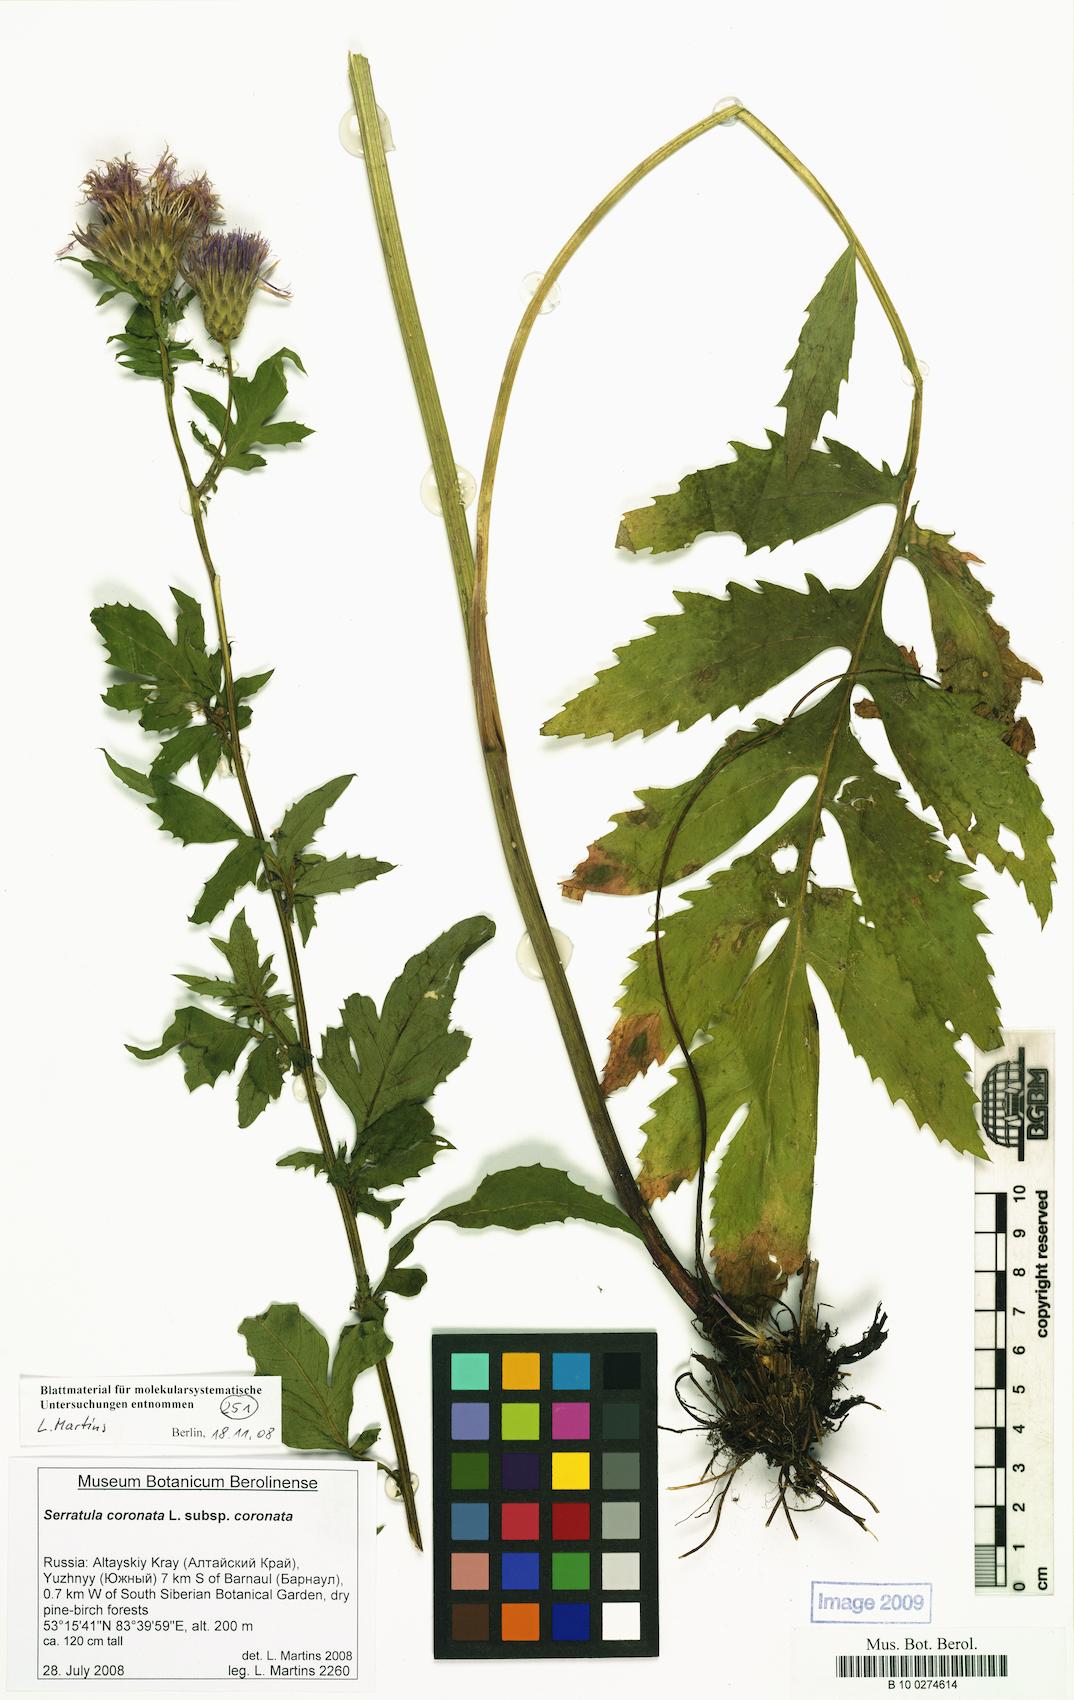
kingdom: Plantae
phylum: Tracheophyta
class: Magnoliopsida
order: Asterales
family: Asteraceae
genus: Serratula
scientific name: Serratula coronata
